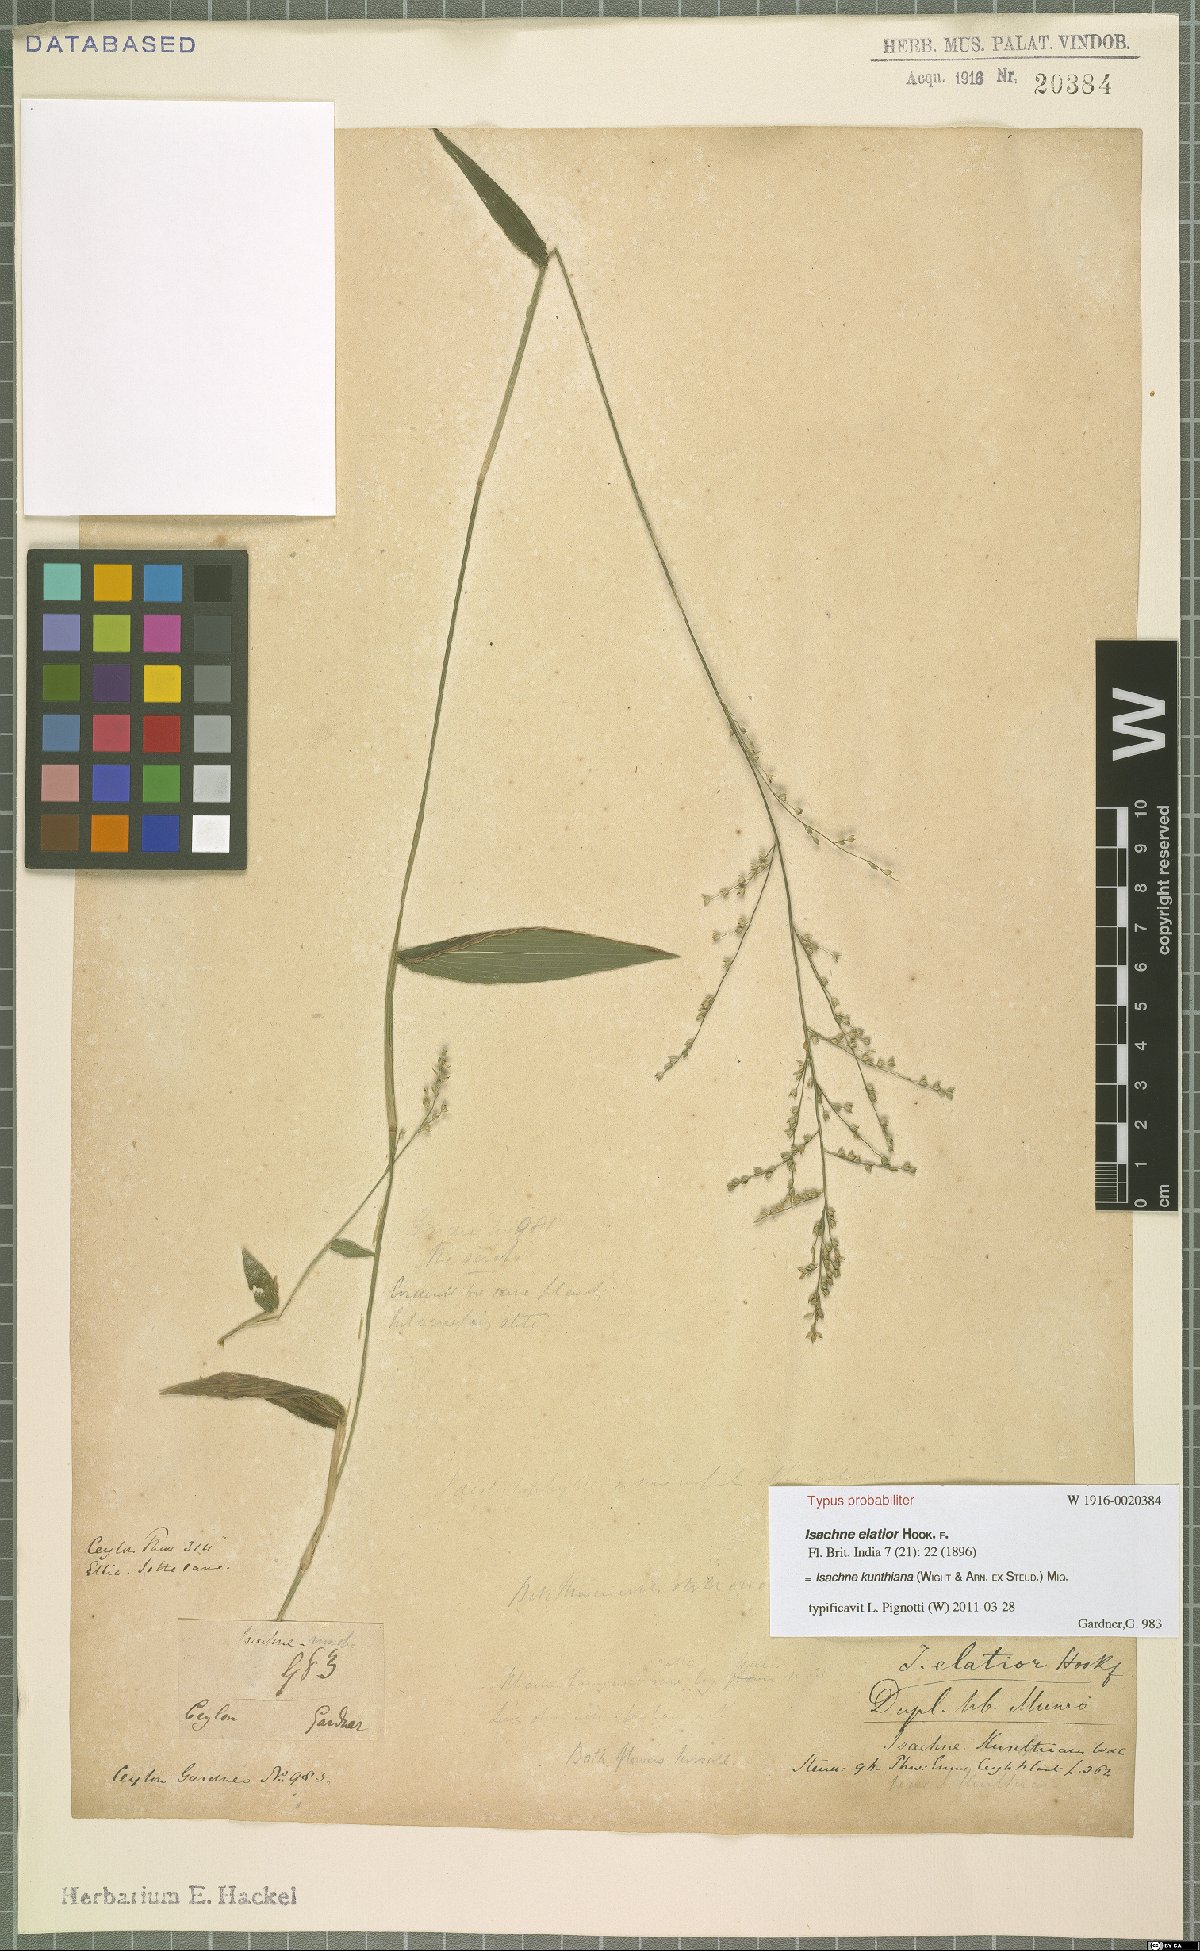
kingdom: Plantae
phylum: Tracheophyta
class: Liliopsida
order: Poales
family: Poaceae
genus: Isachne
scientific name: Isachne kunthiana
